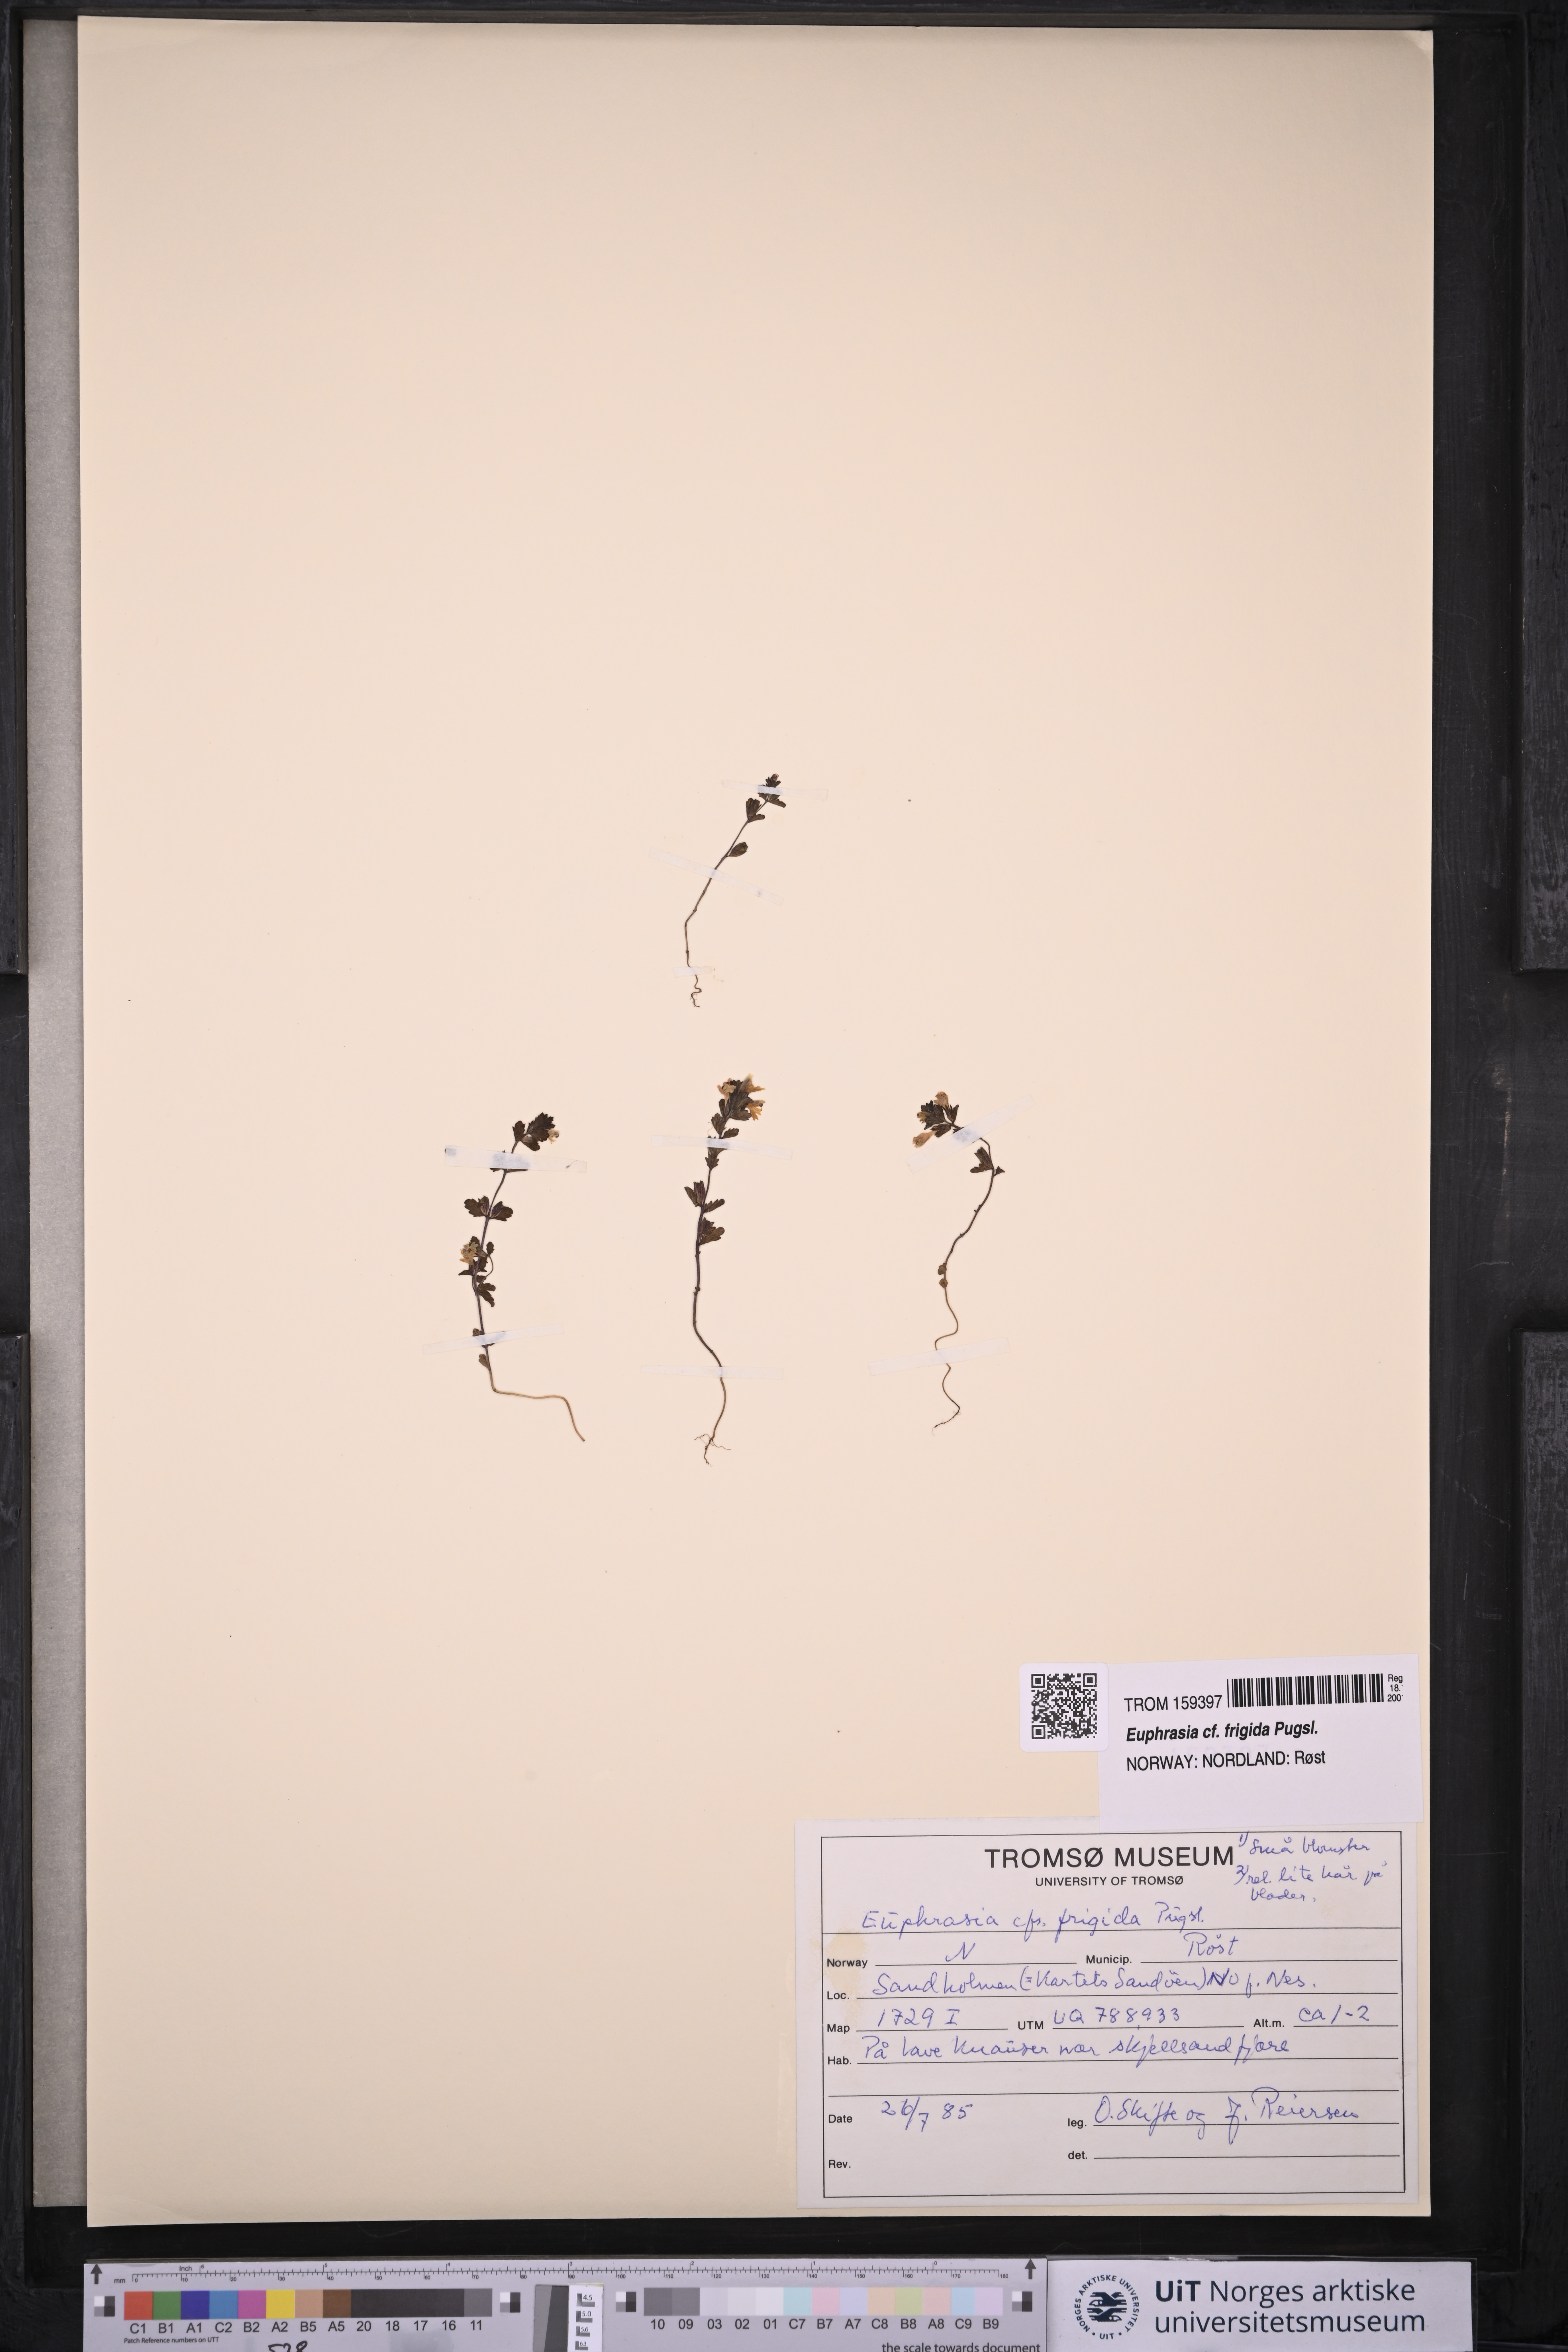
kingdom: Plantae
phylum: Tracheophyta
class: Magnoliopsida
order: Lamiales
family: Orobanchaceae
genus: Euphrasia
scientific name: Euphrasia frigida
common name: An eyebright
